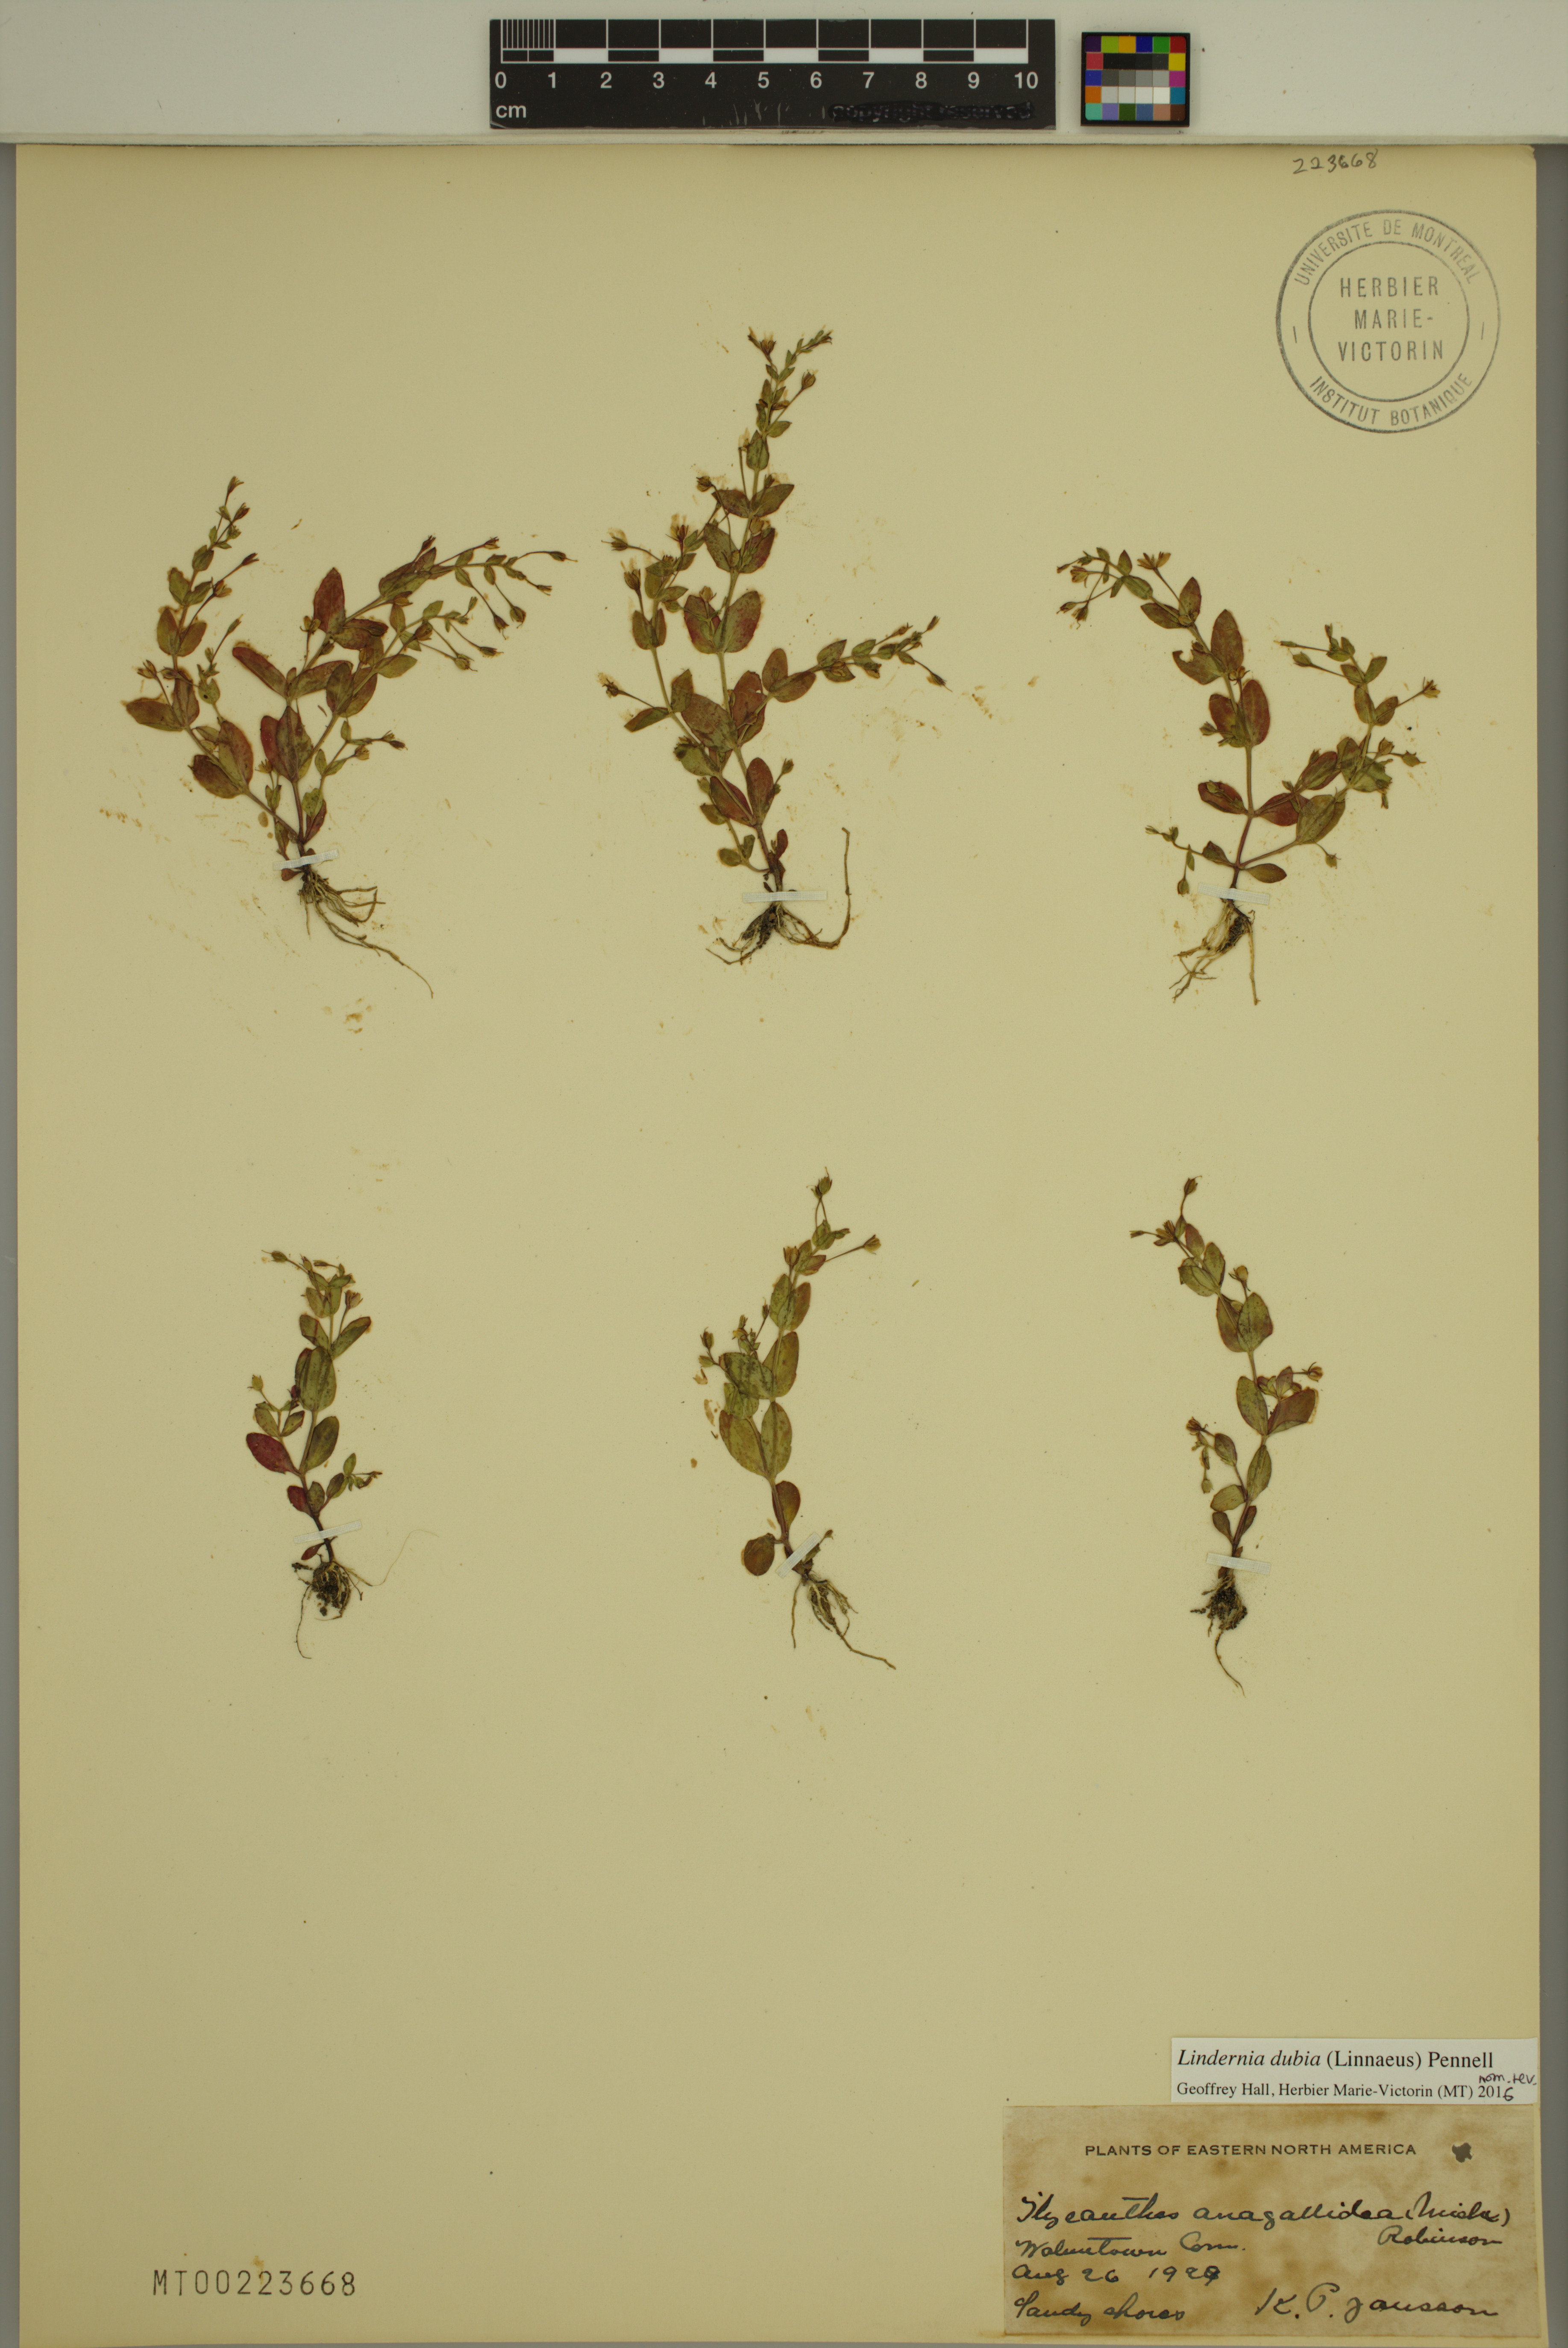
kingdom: Plantae
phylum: Tracheophyta
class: Magnoliopsida
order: Lamiales
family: Linderniaceae
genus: Lindernia
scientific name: Lindernia dubia
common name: Annual false pimpernel
